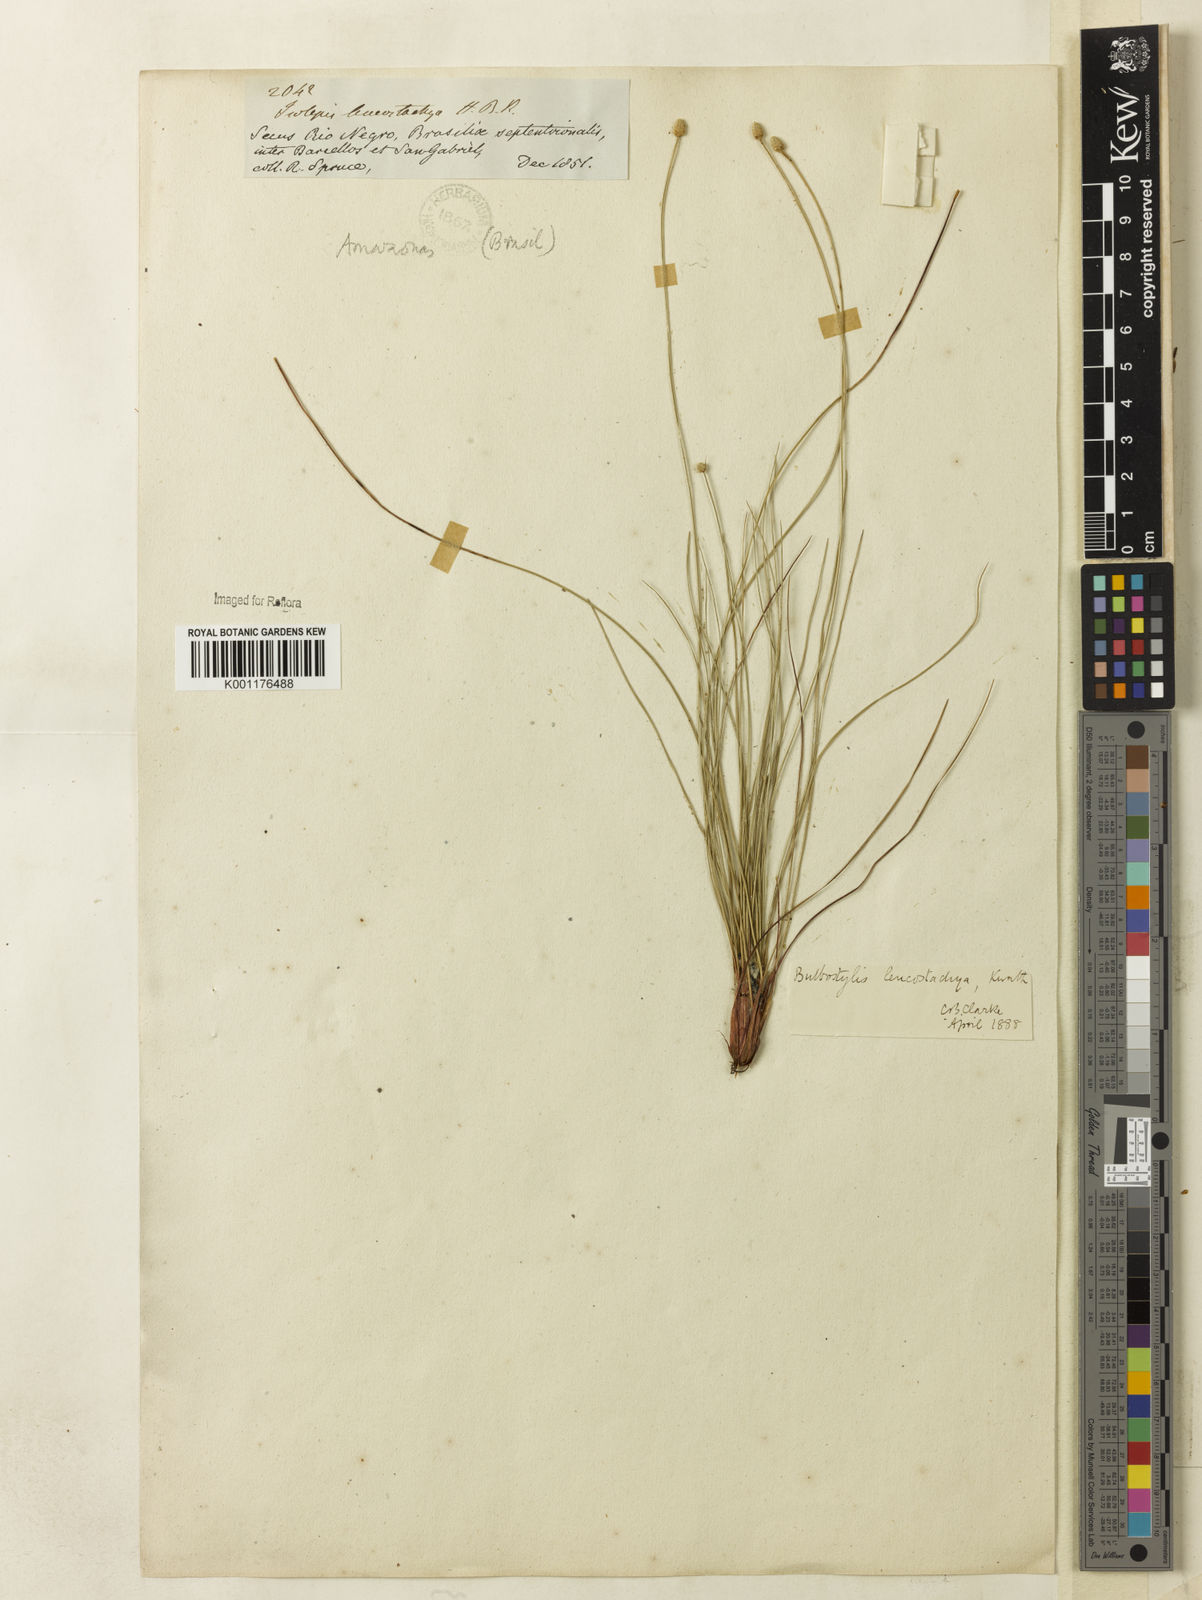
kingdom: Plantae
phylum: Tracheophyta
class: Liliopsida
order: Poales
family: Cyperaceae
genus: Bulbostylis
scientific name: Bulbostylis leucostachya
